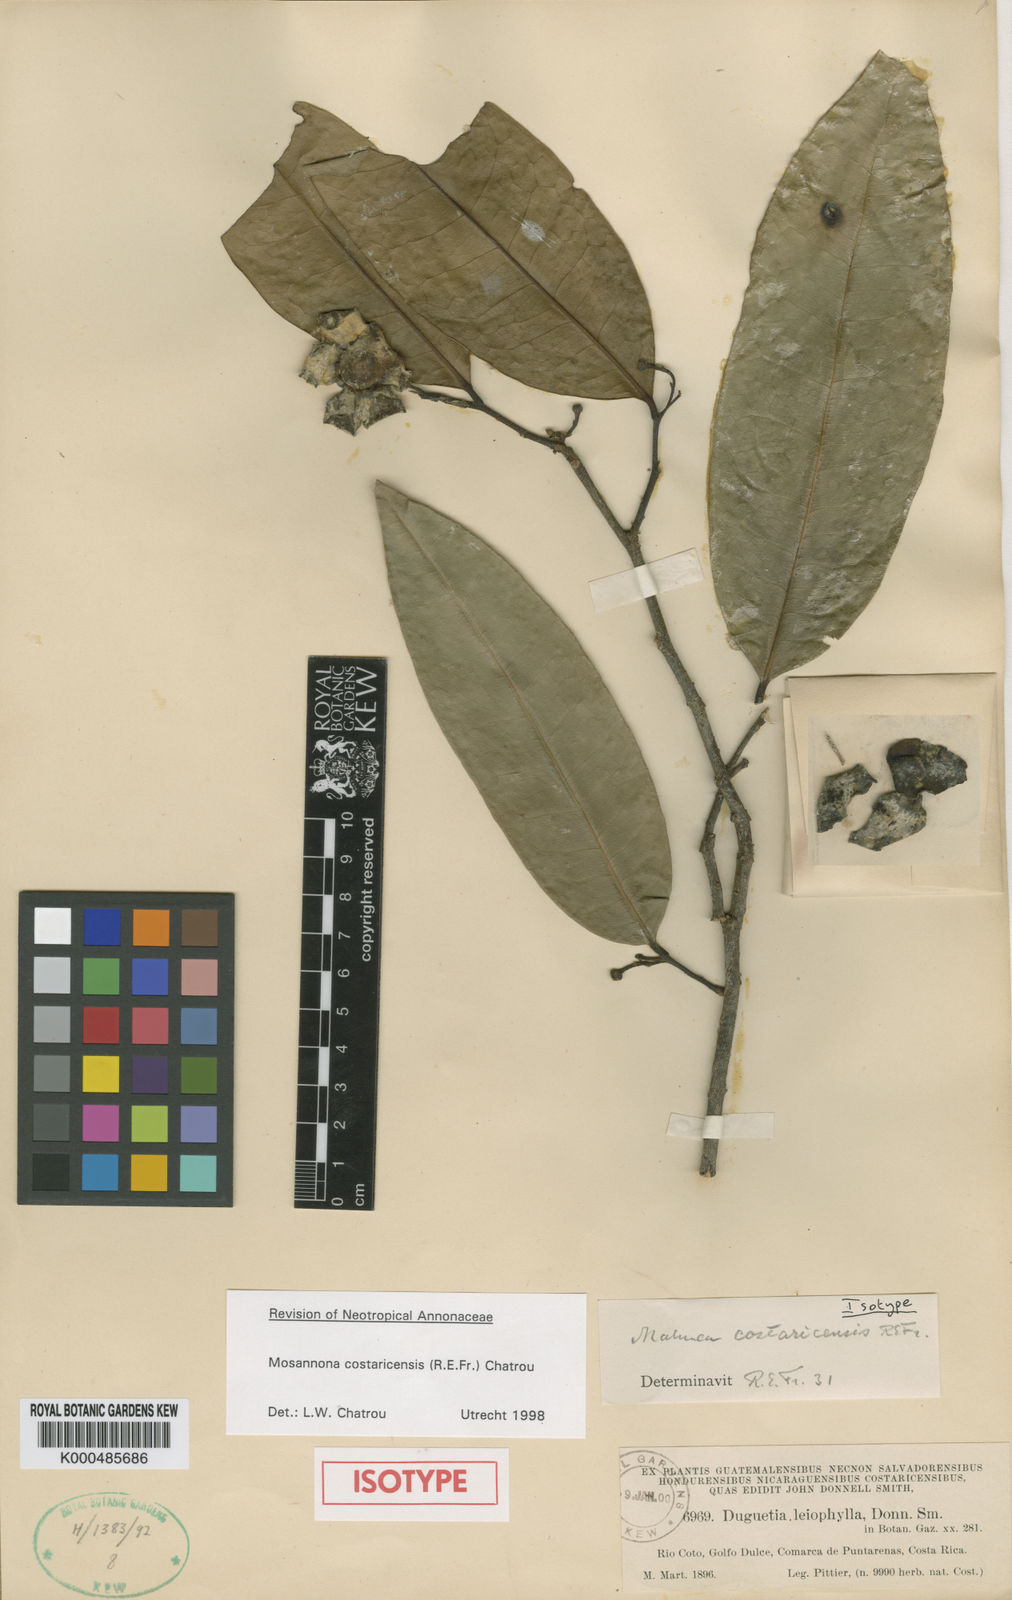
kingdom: Plantae
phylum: Tracheophyta
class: Magnoliopsida
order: Magnoliales
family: Annonaceae
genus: Mosannona
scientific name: Mosannona costaricensis
